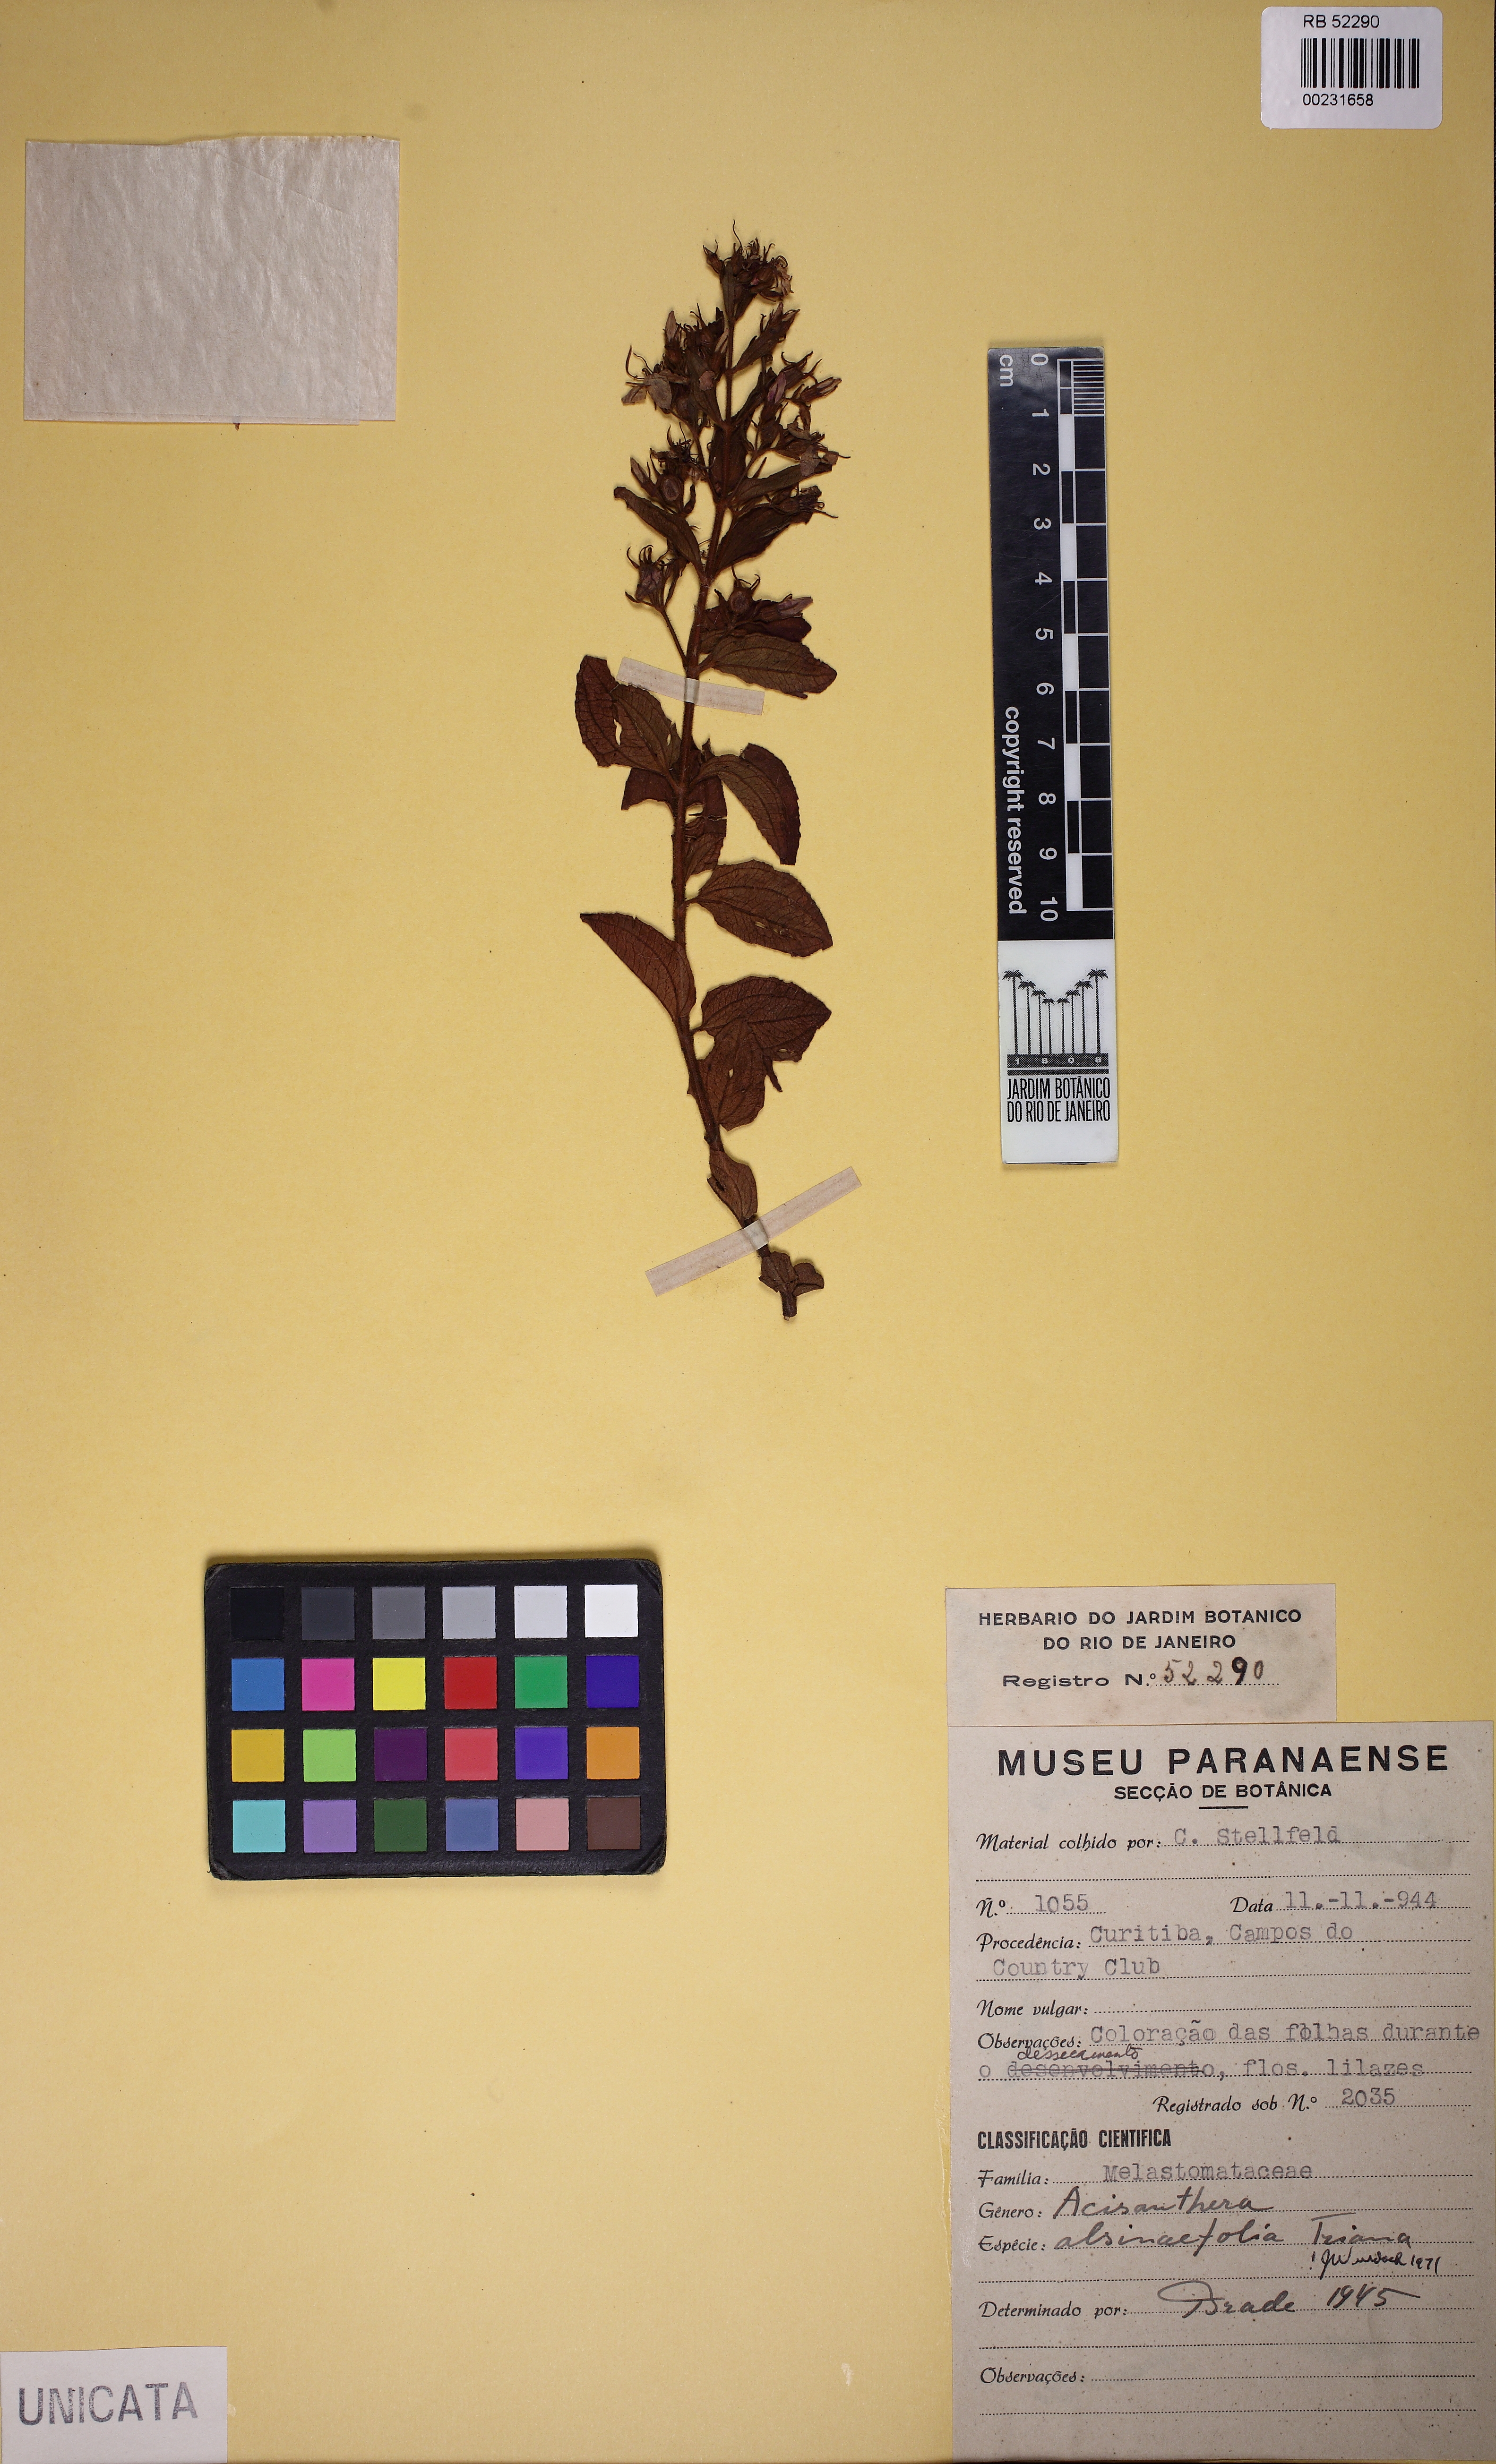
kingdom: Plantae
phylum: Tracheophyta
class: Magnoliopsida
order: Myrtales
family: Melastomataceae
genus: Acisanthera
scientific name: Acisanthera alsinaefolia
